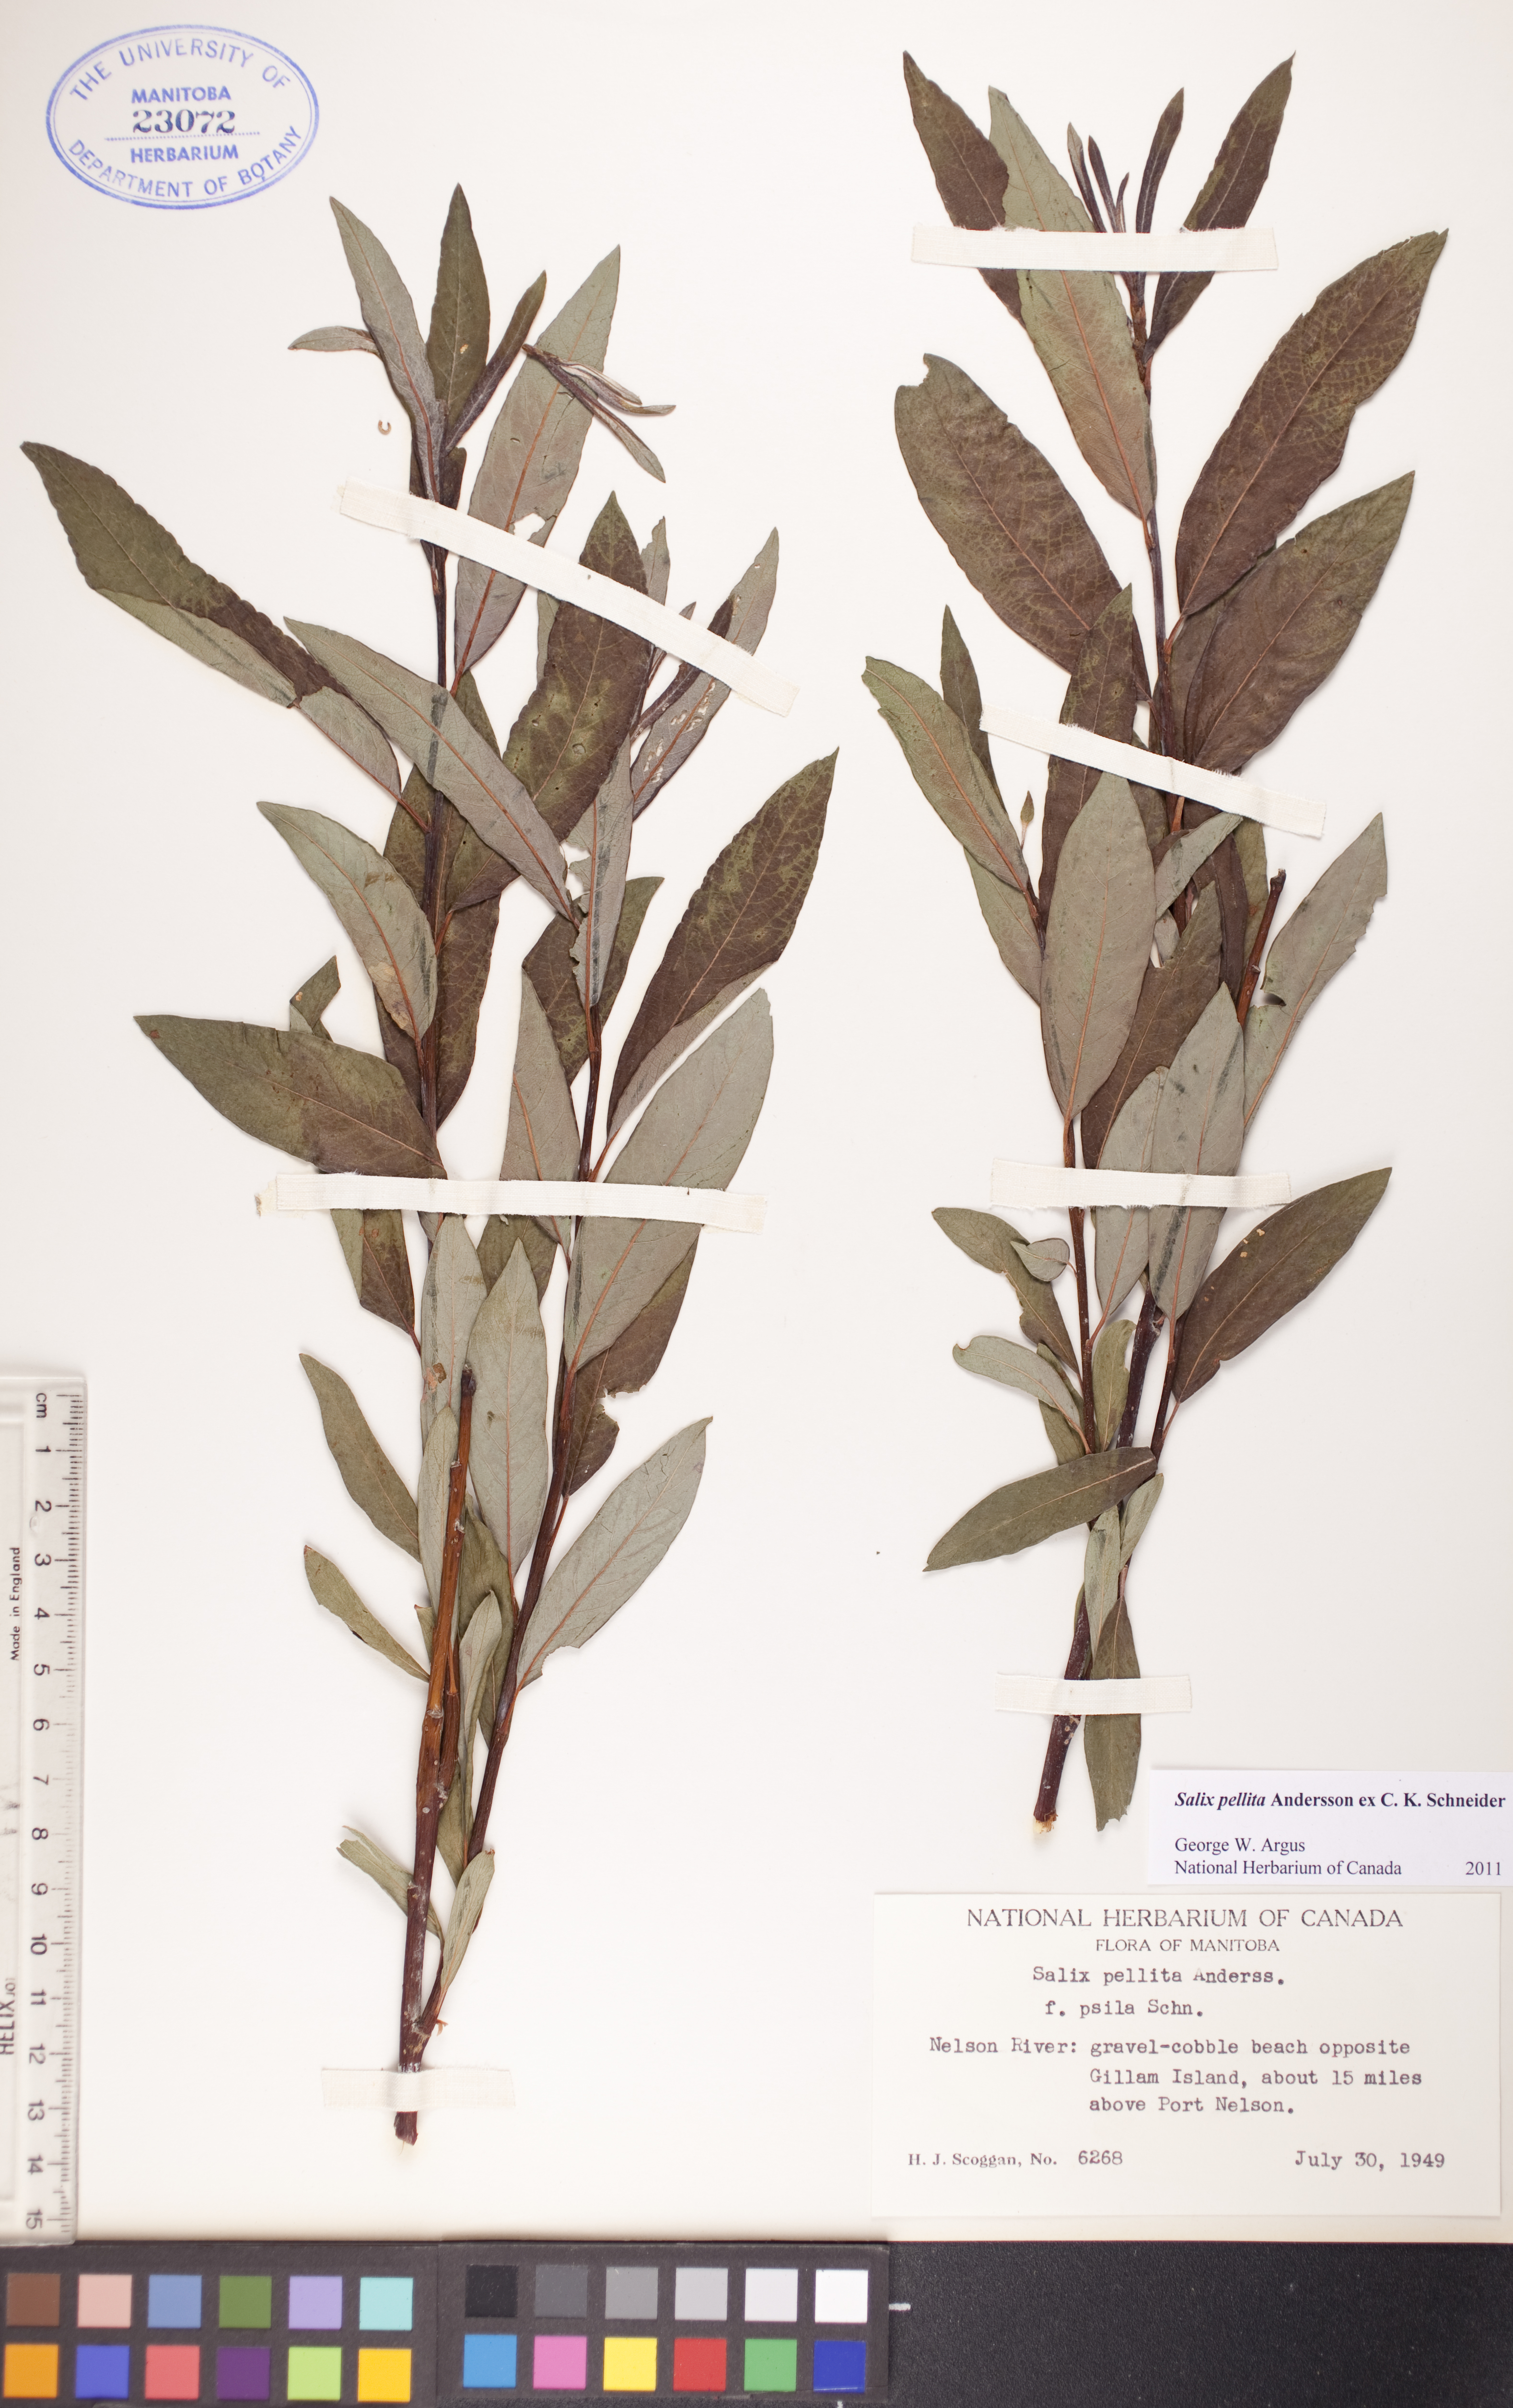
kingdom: Plantae
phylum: Tracheophyta
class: Magnoliopsida
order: Malpighiales
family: Salicaceae
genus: Salix
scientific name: Salix pellita
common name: Satiny willow
